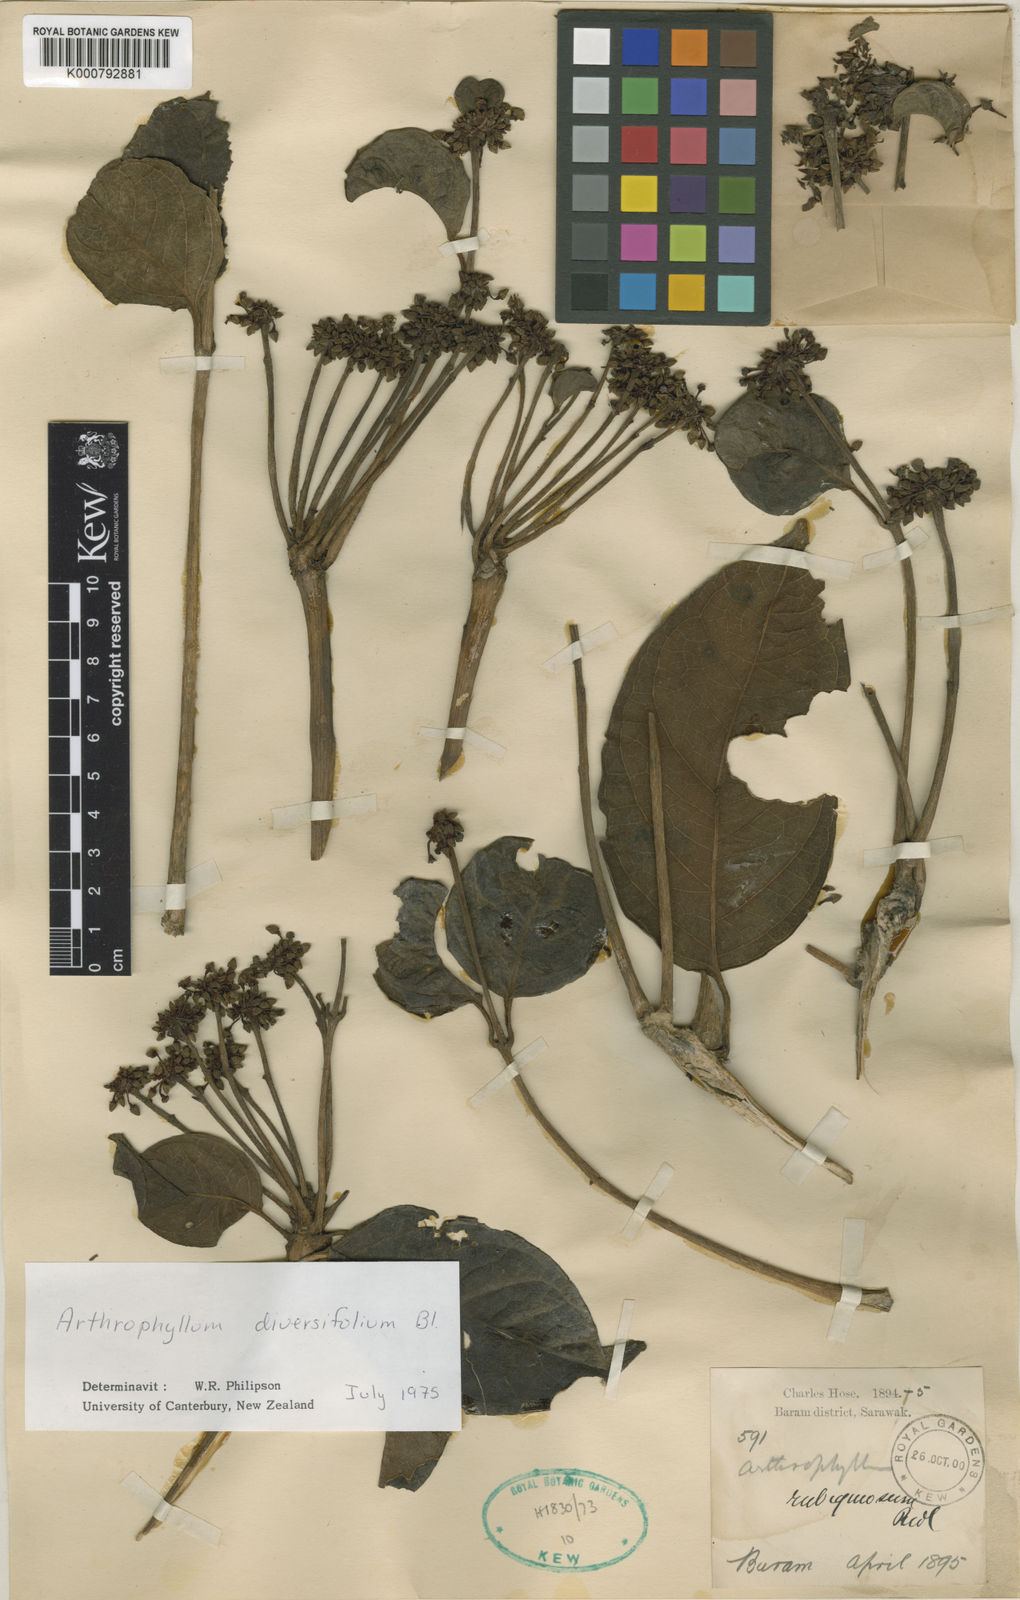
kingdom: Plantae
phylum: Tracheophyta
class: Magnoliopsida
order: Apiales
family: Araliaceae
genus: Polyscias
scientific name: Polyscias diversifolia
